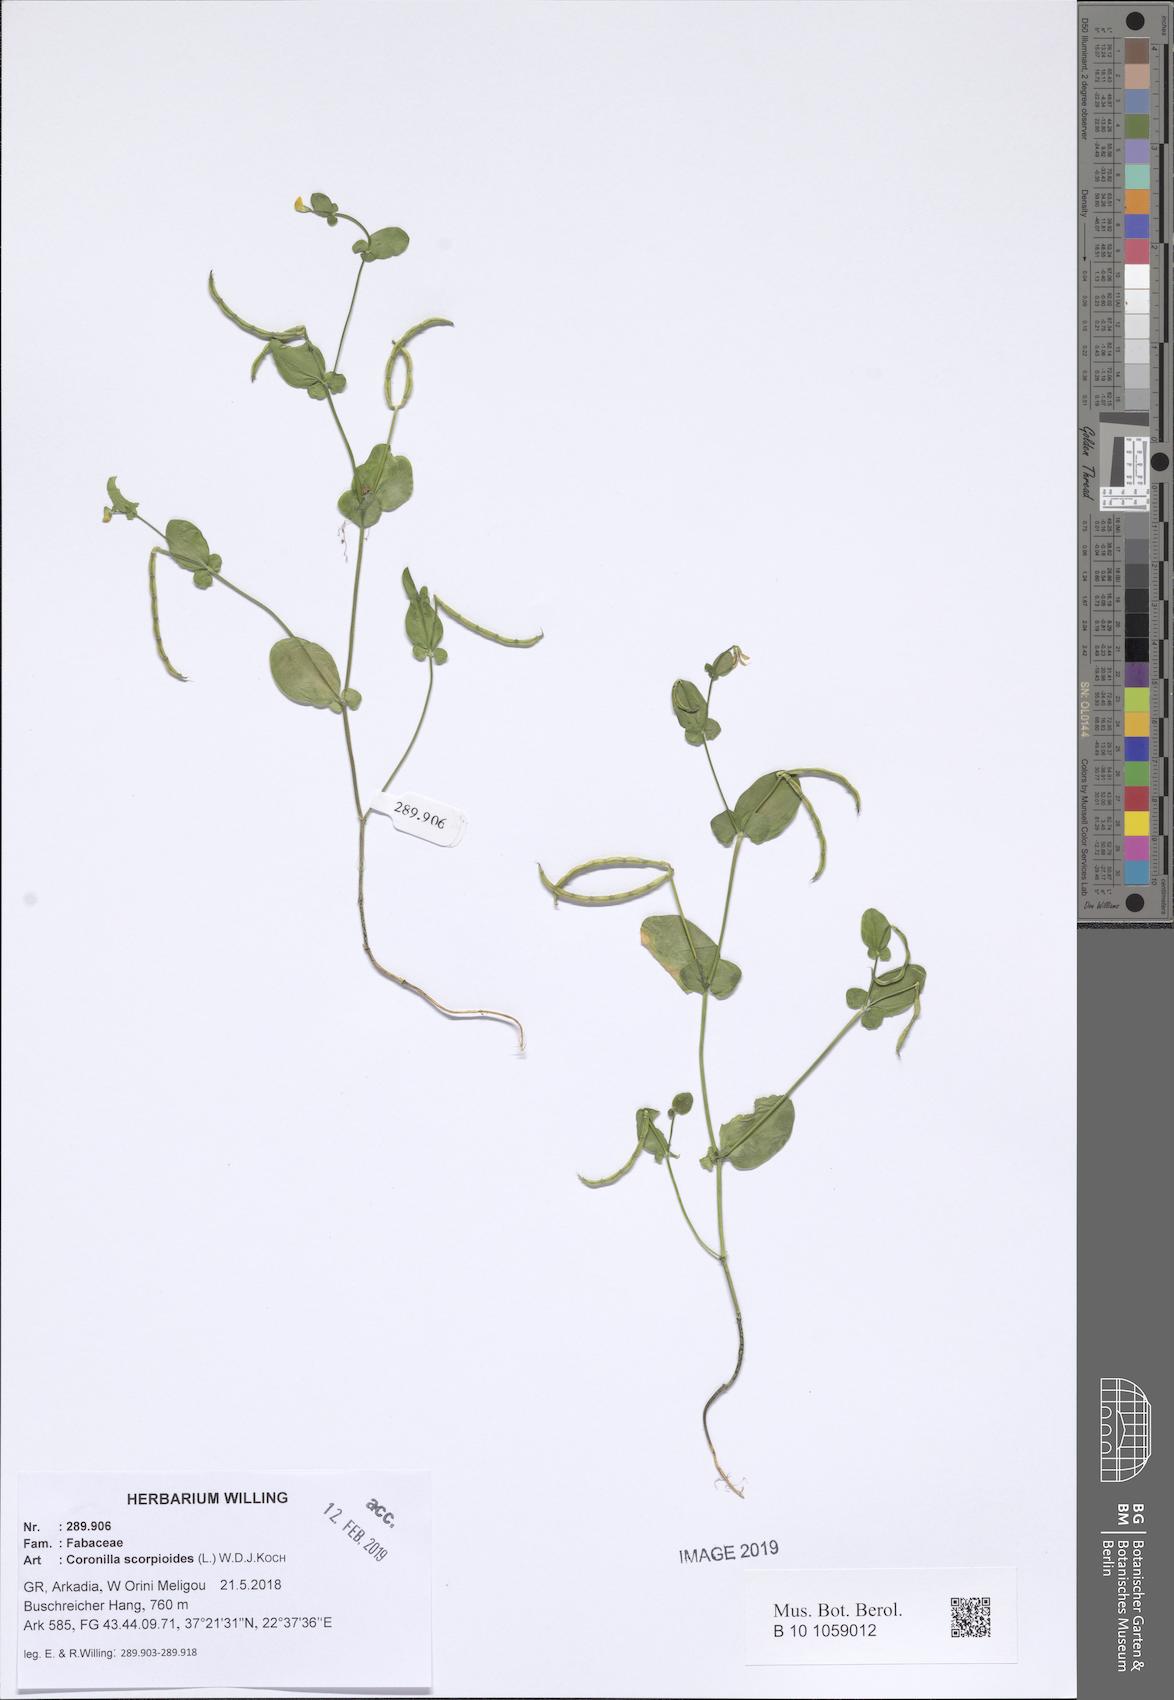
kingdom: Plantae
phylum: Tracheophyta
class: Magnoliopsida
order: Fabales
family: Fabaceae
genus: Coronilla
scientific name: Coronilla scorpioides
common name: Annual scorpion-vetch
